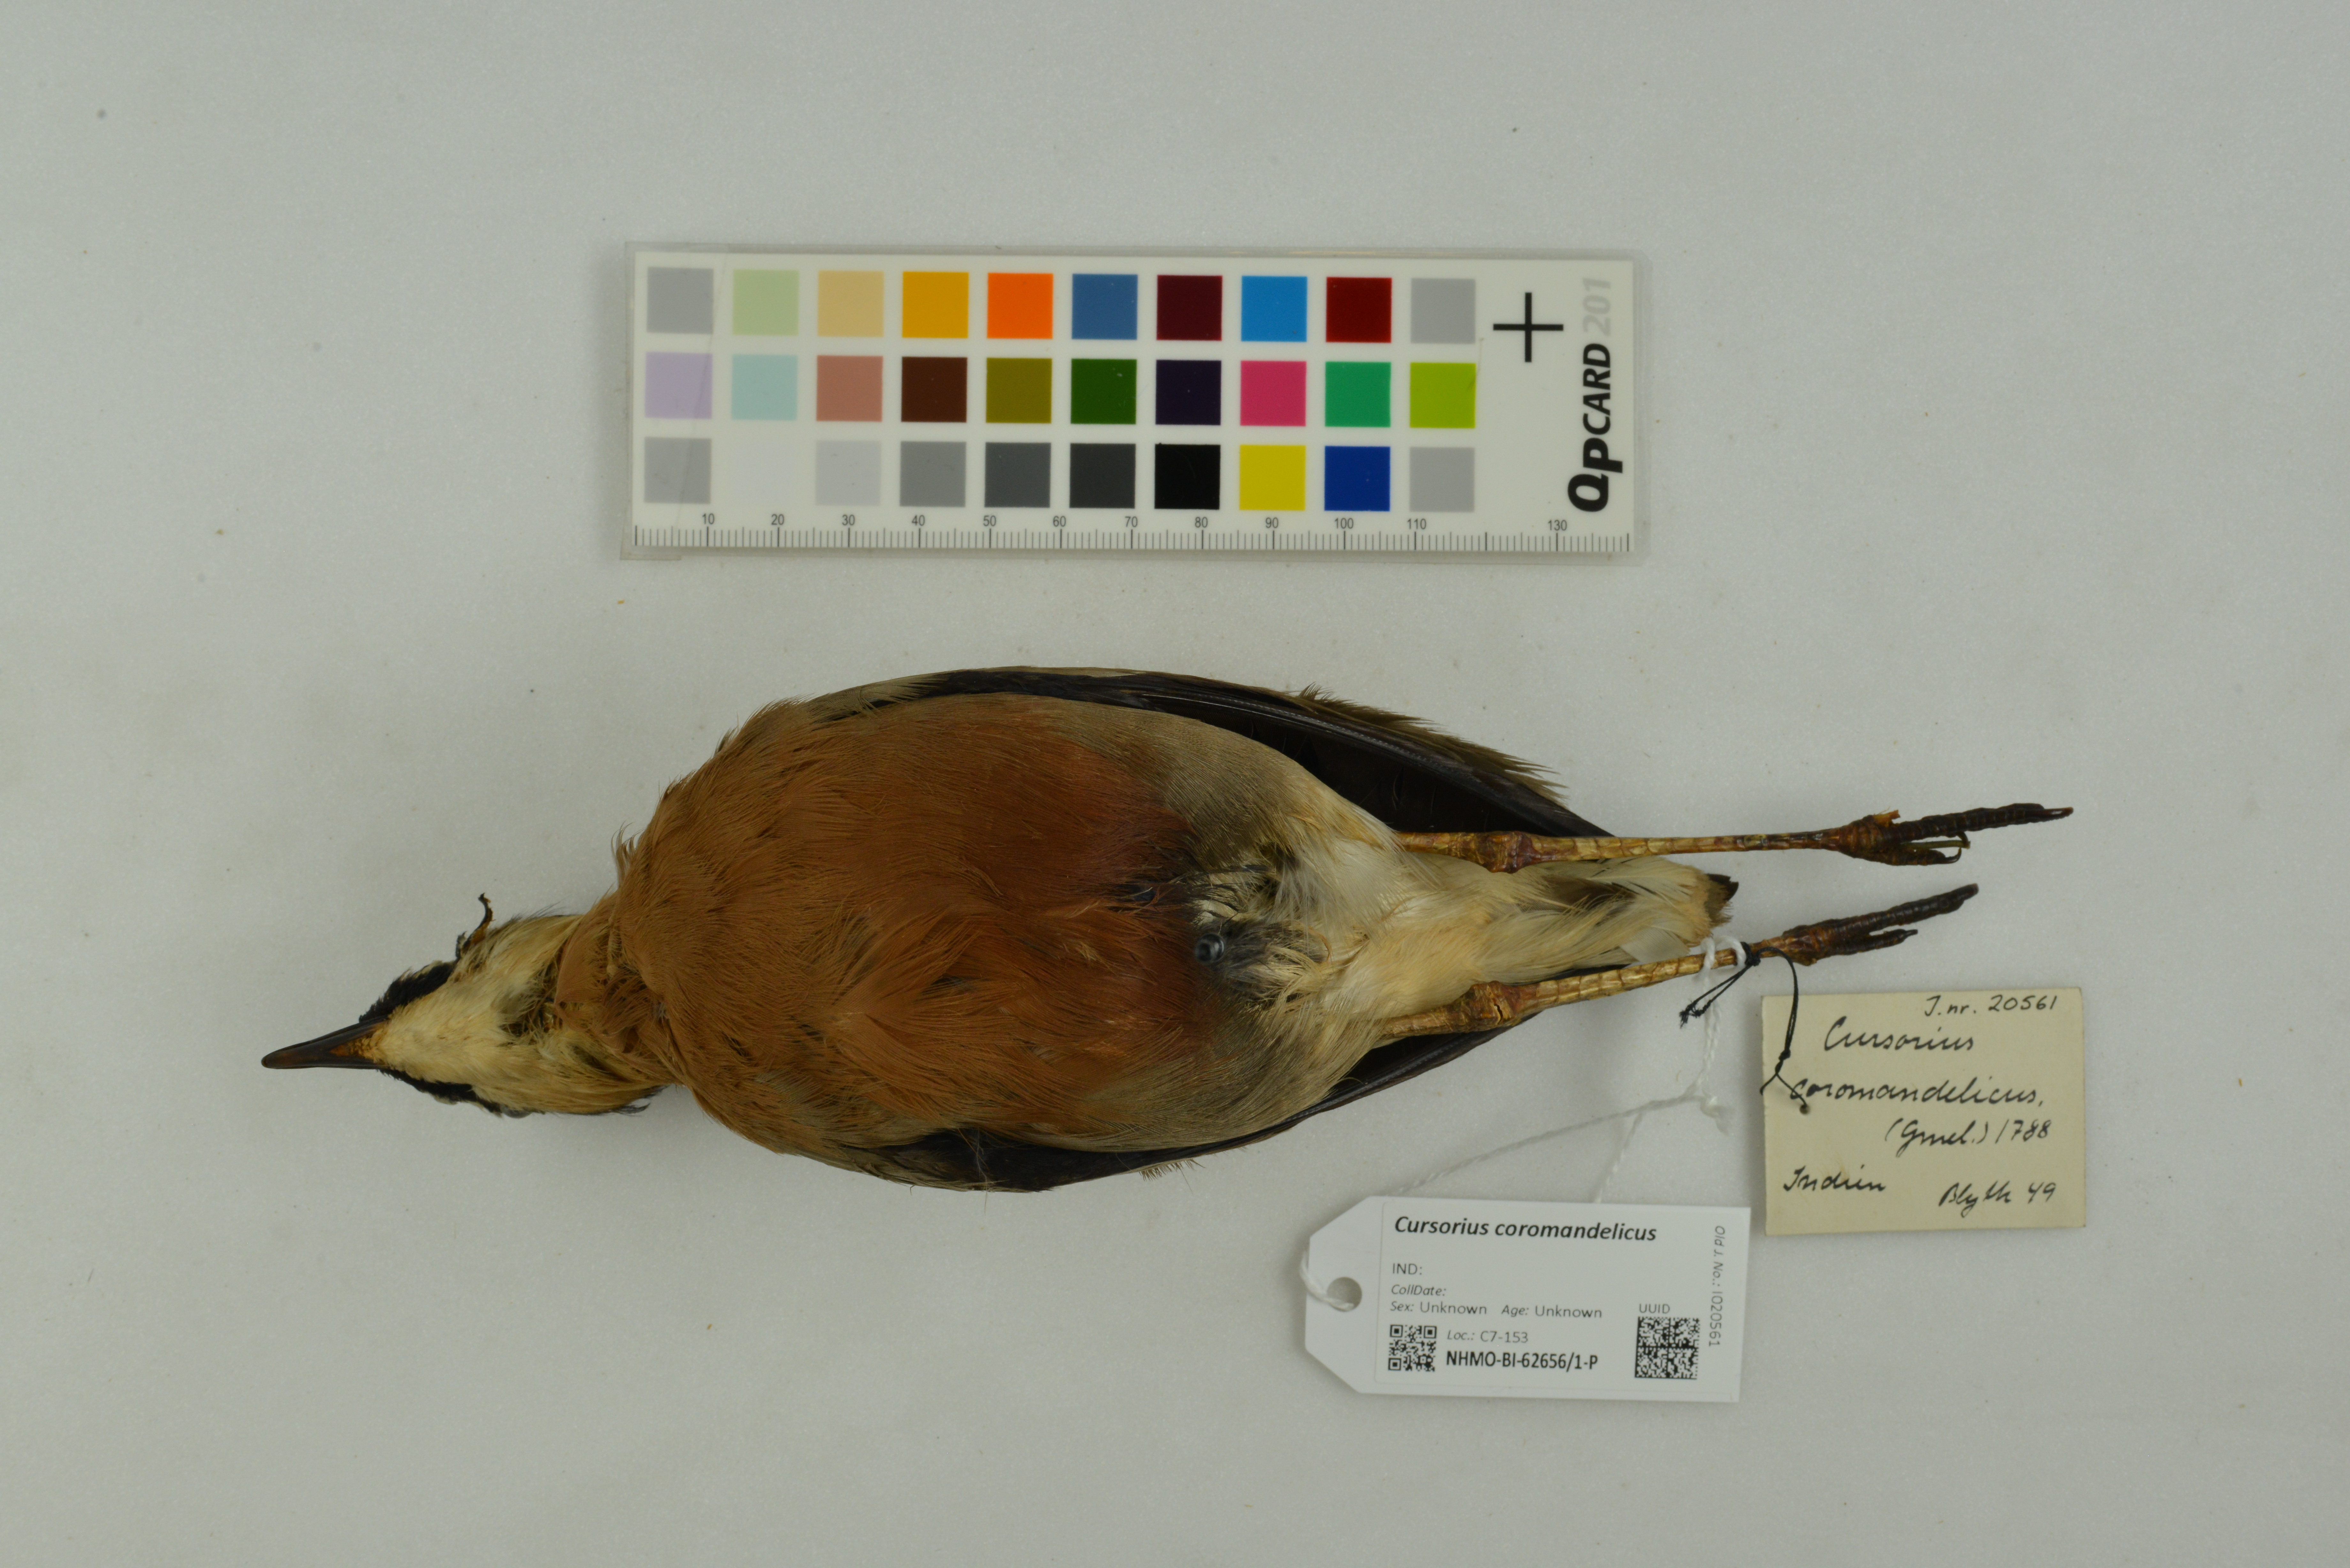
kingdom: Animalia
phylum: Chordata
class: Aves
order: Charadriiformes
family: Glareolidae
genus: Cursorius
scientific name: Cursorius coromandelicus
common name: Indian courser
